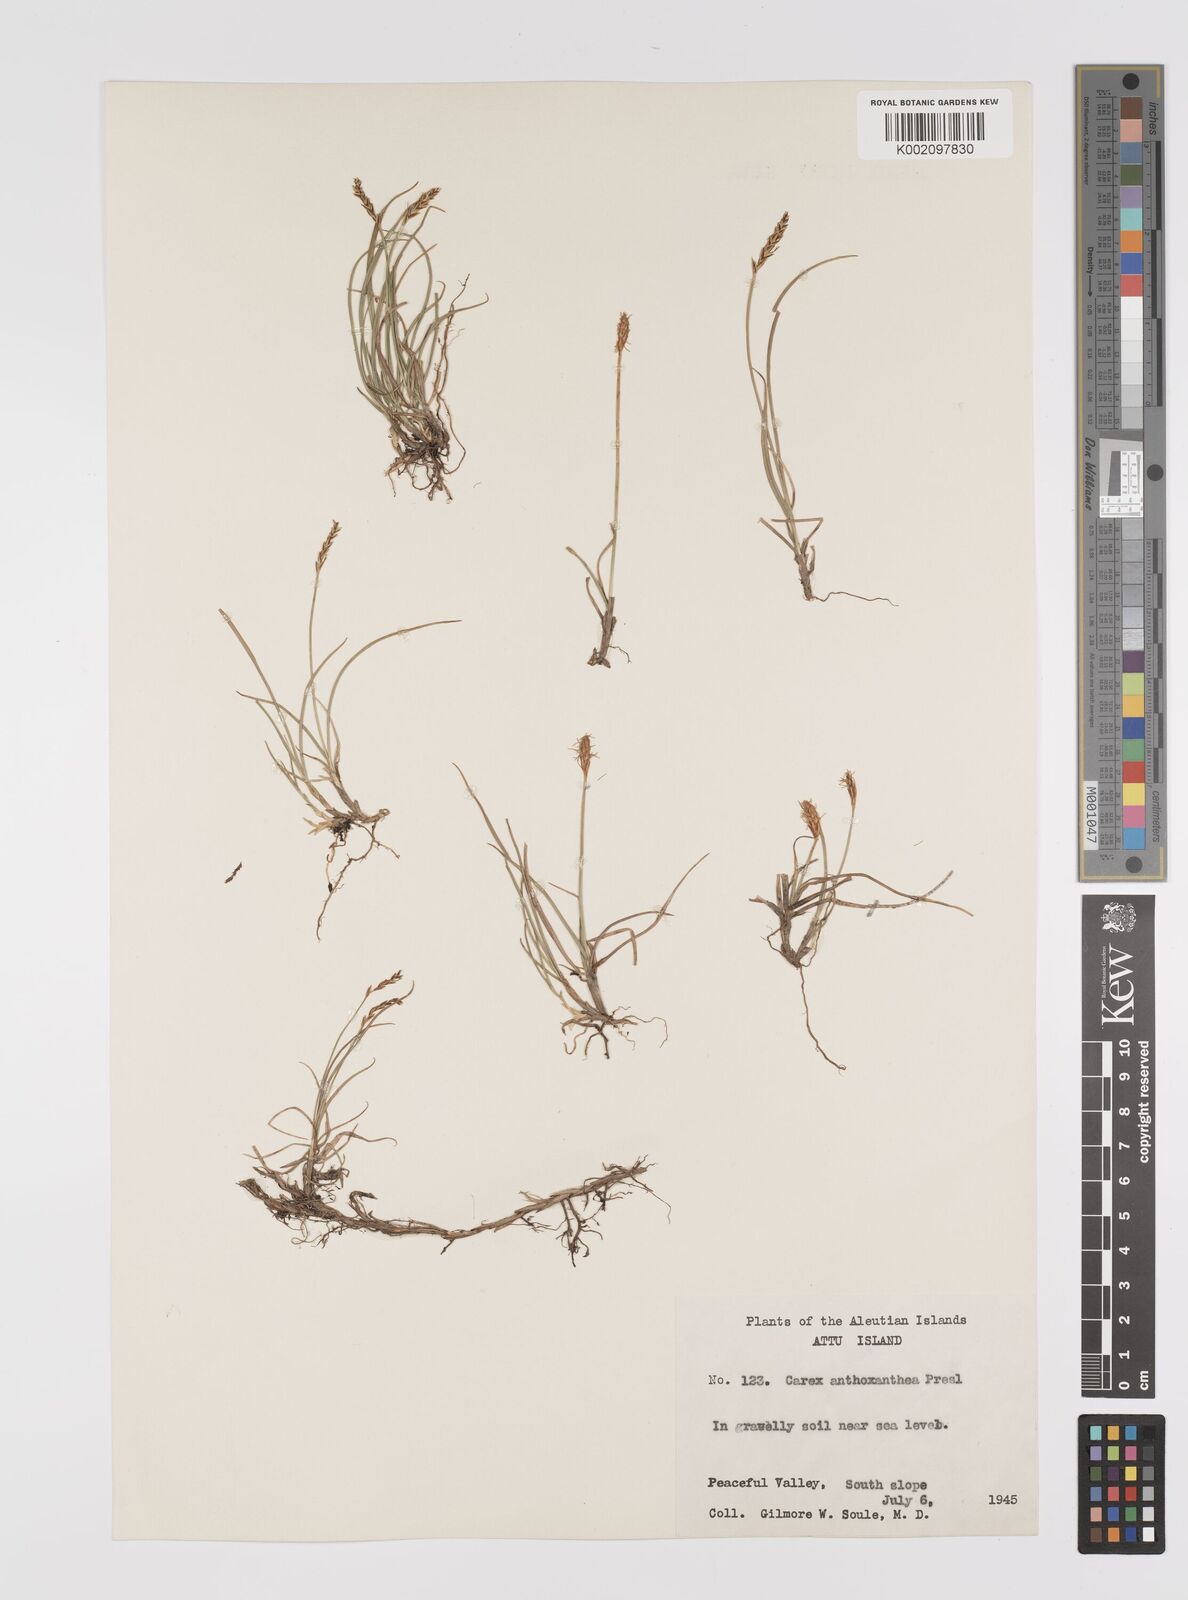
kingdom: Plantae
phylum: Tracheophyta
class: Liliopsida
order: Poales
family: Cyperaceae
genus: Carex
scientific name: Carex anthoxanthea
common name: Grassy-slope arctic sedge
